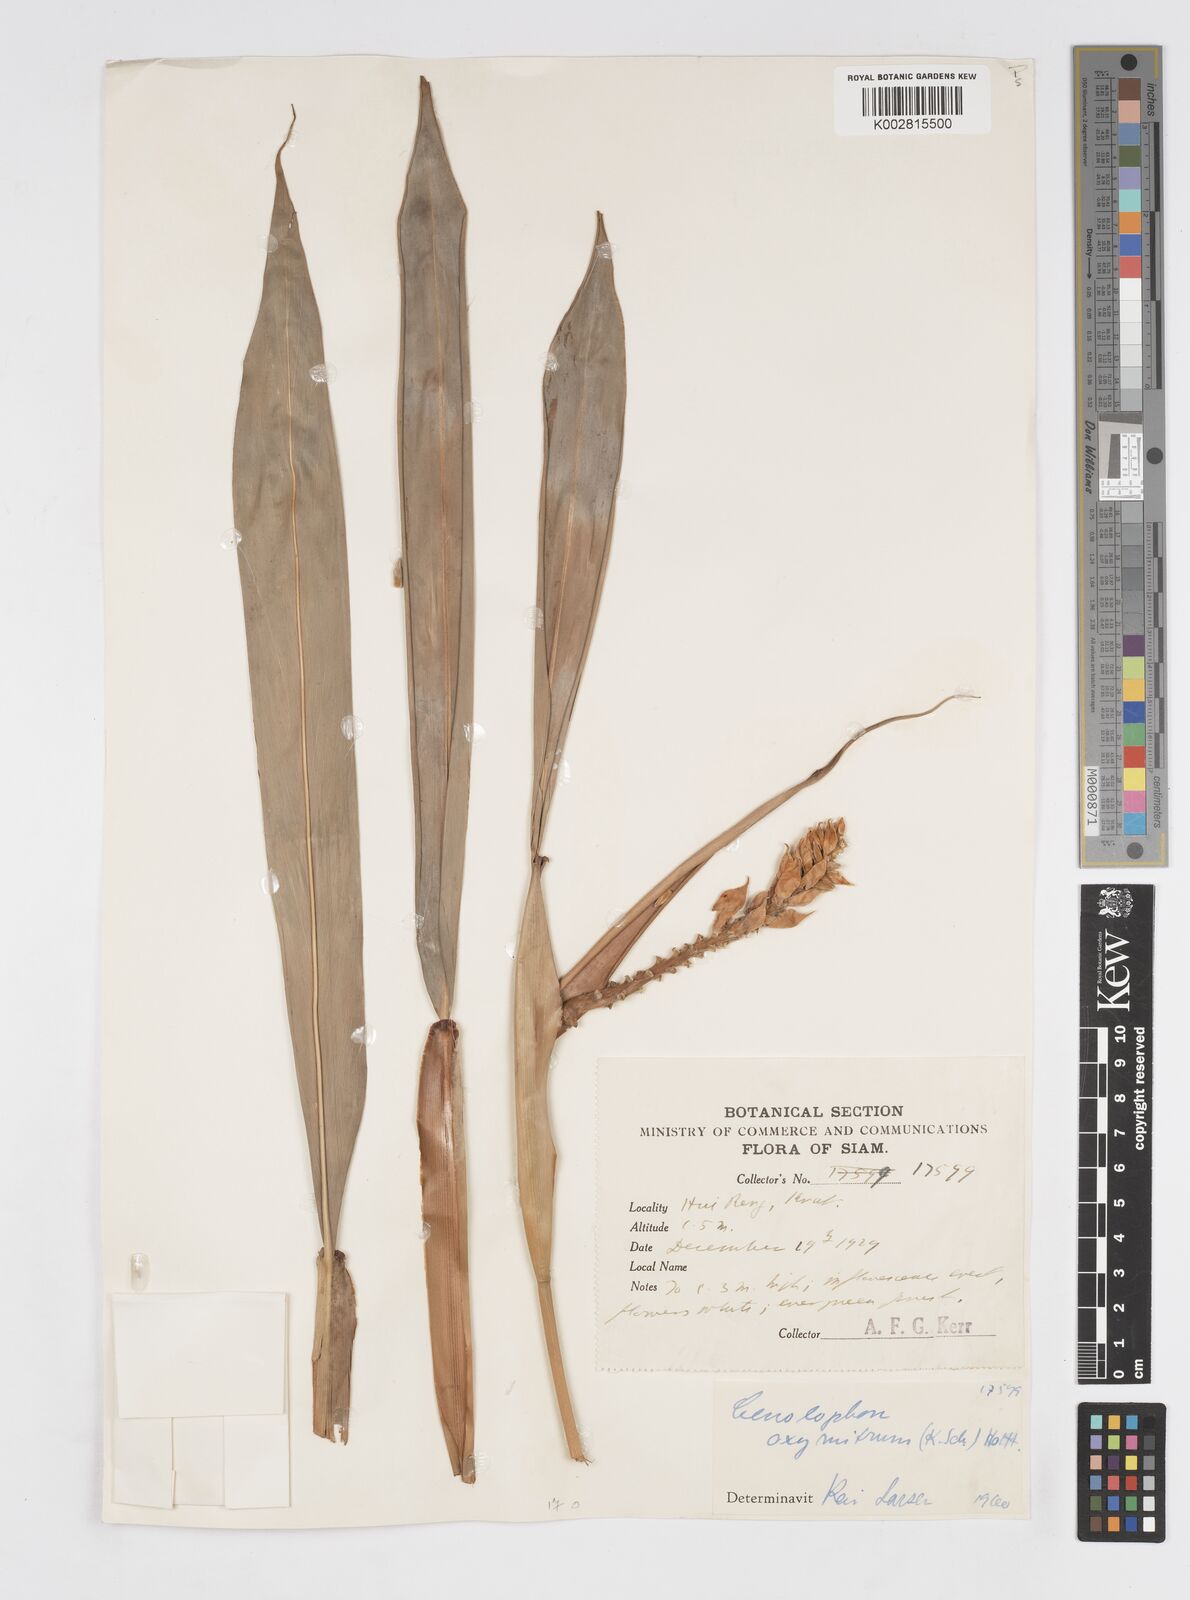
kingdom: Plantae
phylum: Tracheophyta
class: Liliopsida
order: Zingiberales
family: Zingiberaceae
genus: Alpinia
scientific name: Alpinia oxymitra
